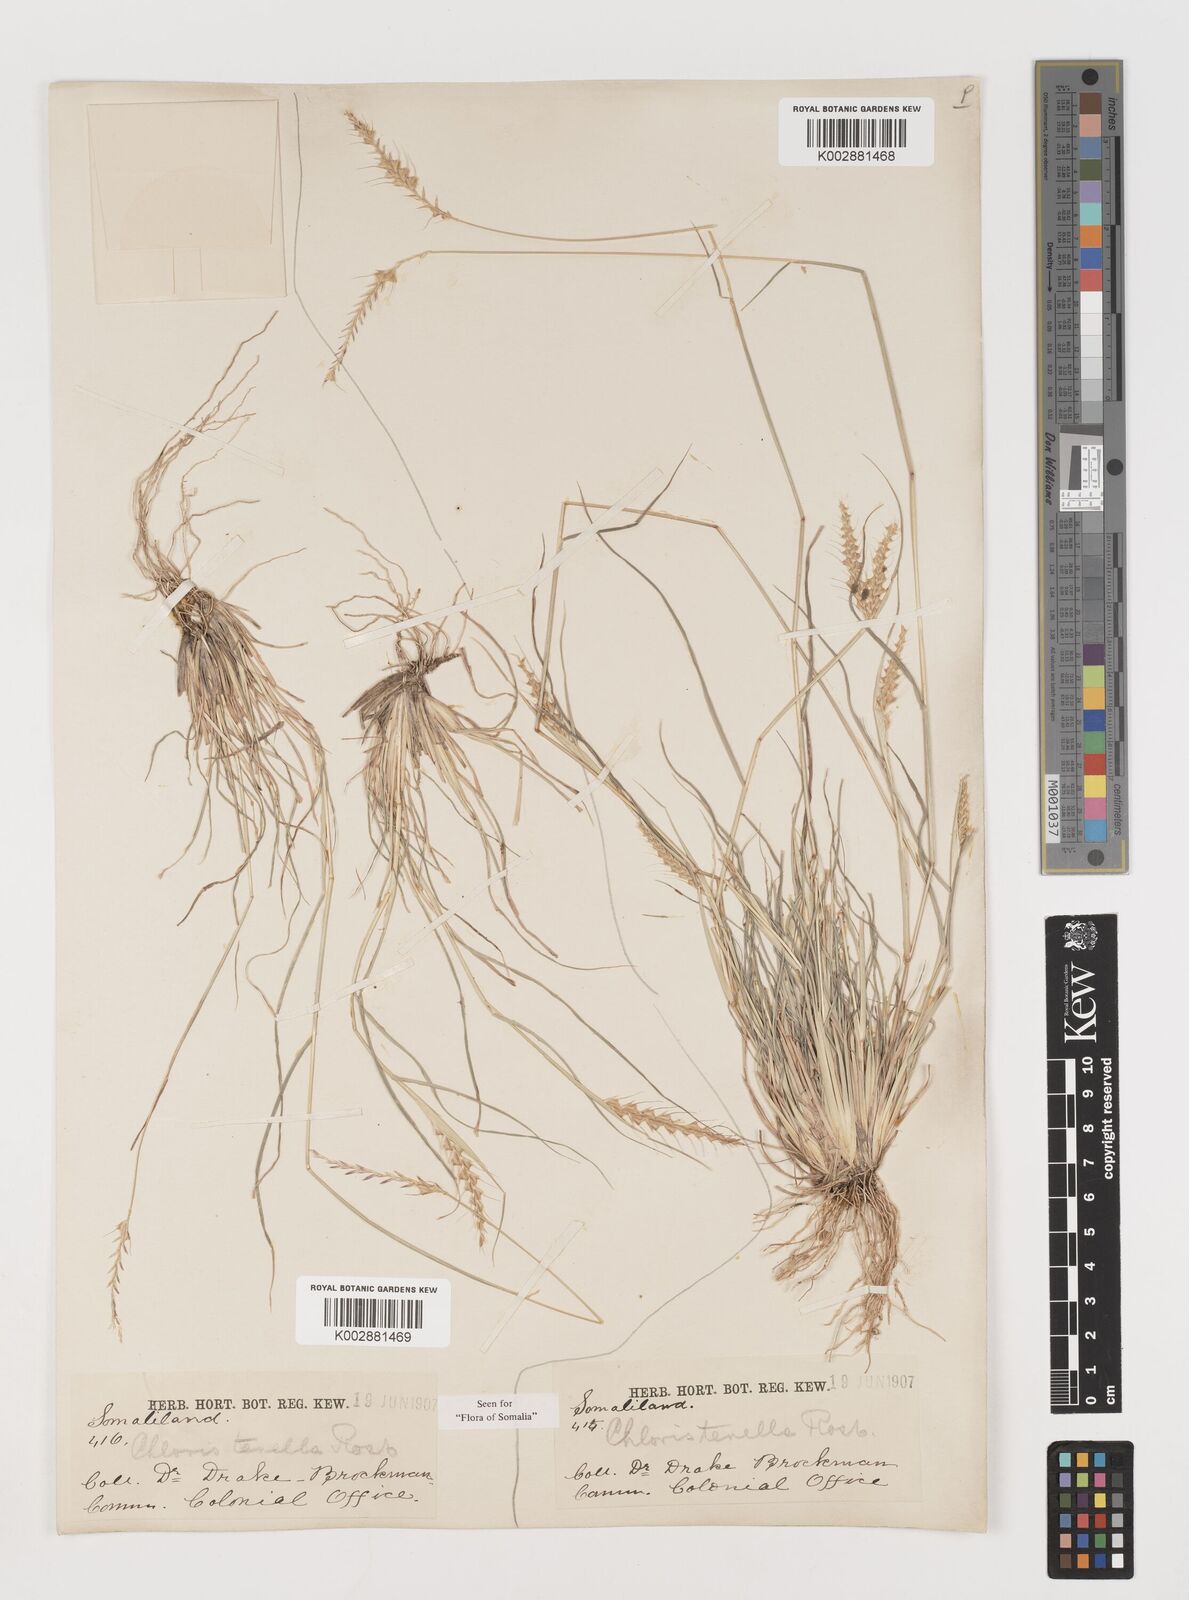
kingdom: Plantae
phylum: Tracheophyta
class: Liliopsida
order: Poales
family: Poaceae
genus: Tetrapogon
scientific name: Tetrapogon tenellus
